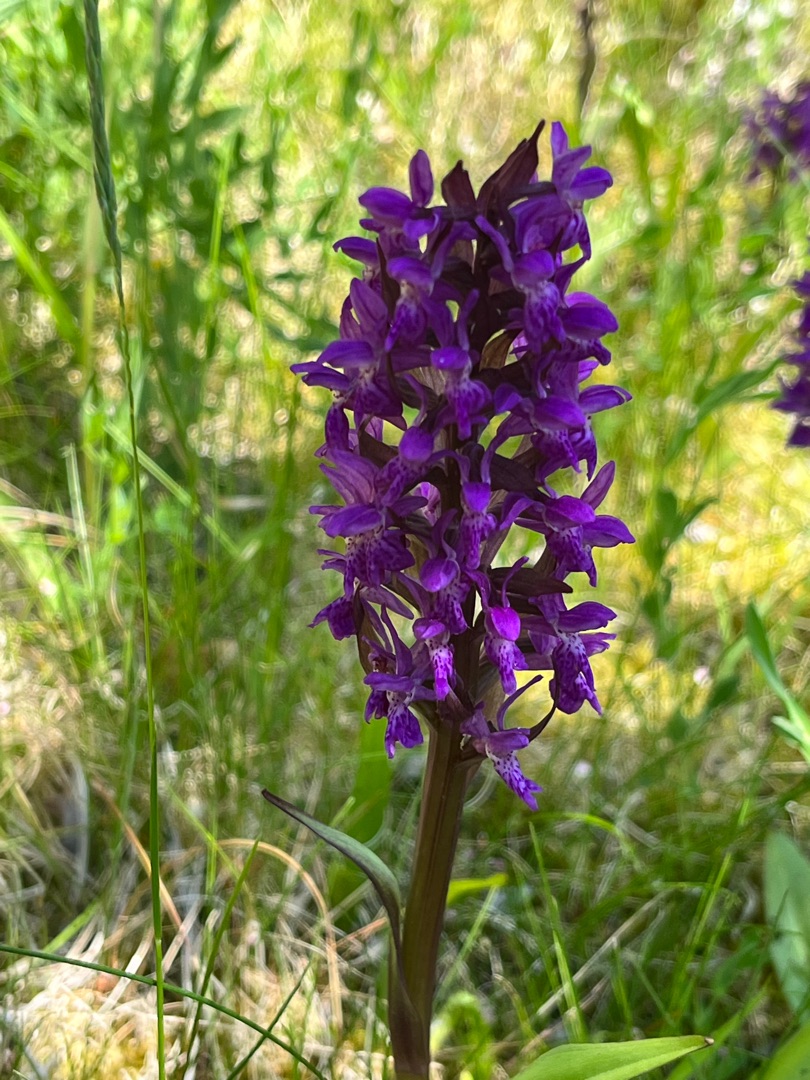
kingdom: Plantae
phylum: Tracheophyta
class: Liliopsida
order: Asparagales
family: Orchidaceae
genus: Dactylorhiza
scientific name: Dactylorhiza majalis
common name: Maj-gøgeurt
